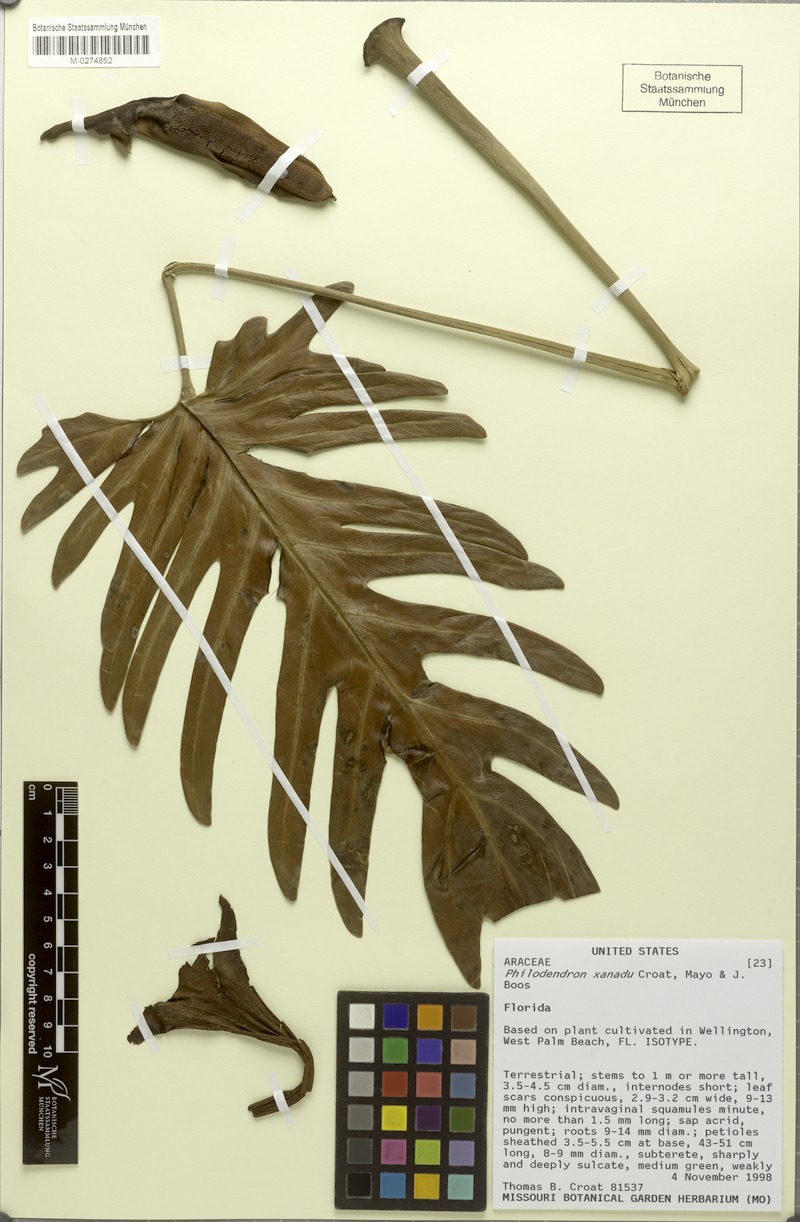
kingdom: Plantae
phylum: Tracheophyta
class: Liliopsida
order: Alismatales
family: Araceae
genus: Thaumatophyllum
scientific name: Thaumatophyllum xanadu
